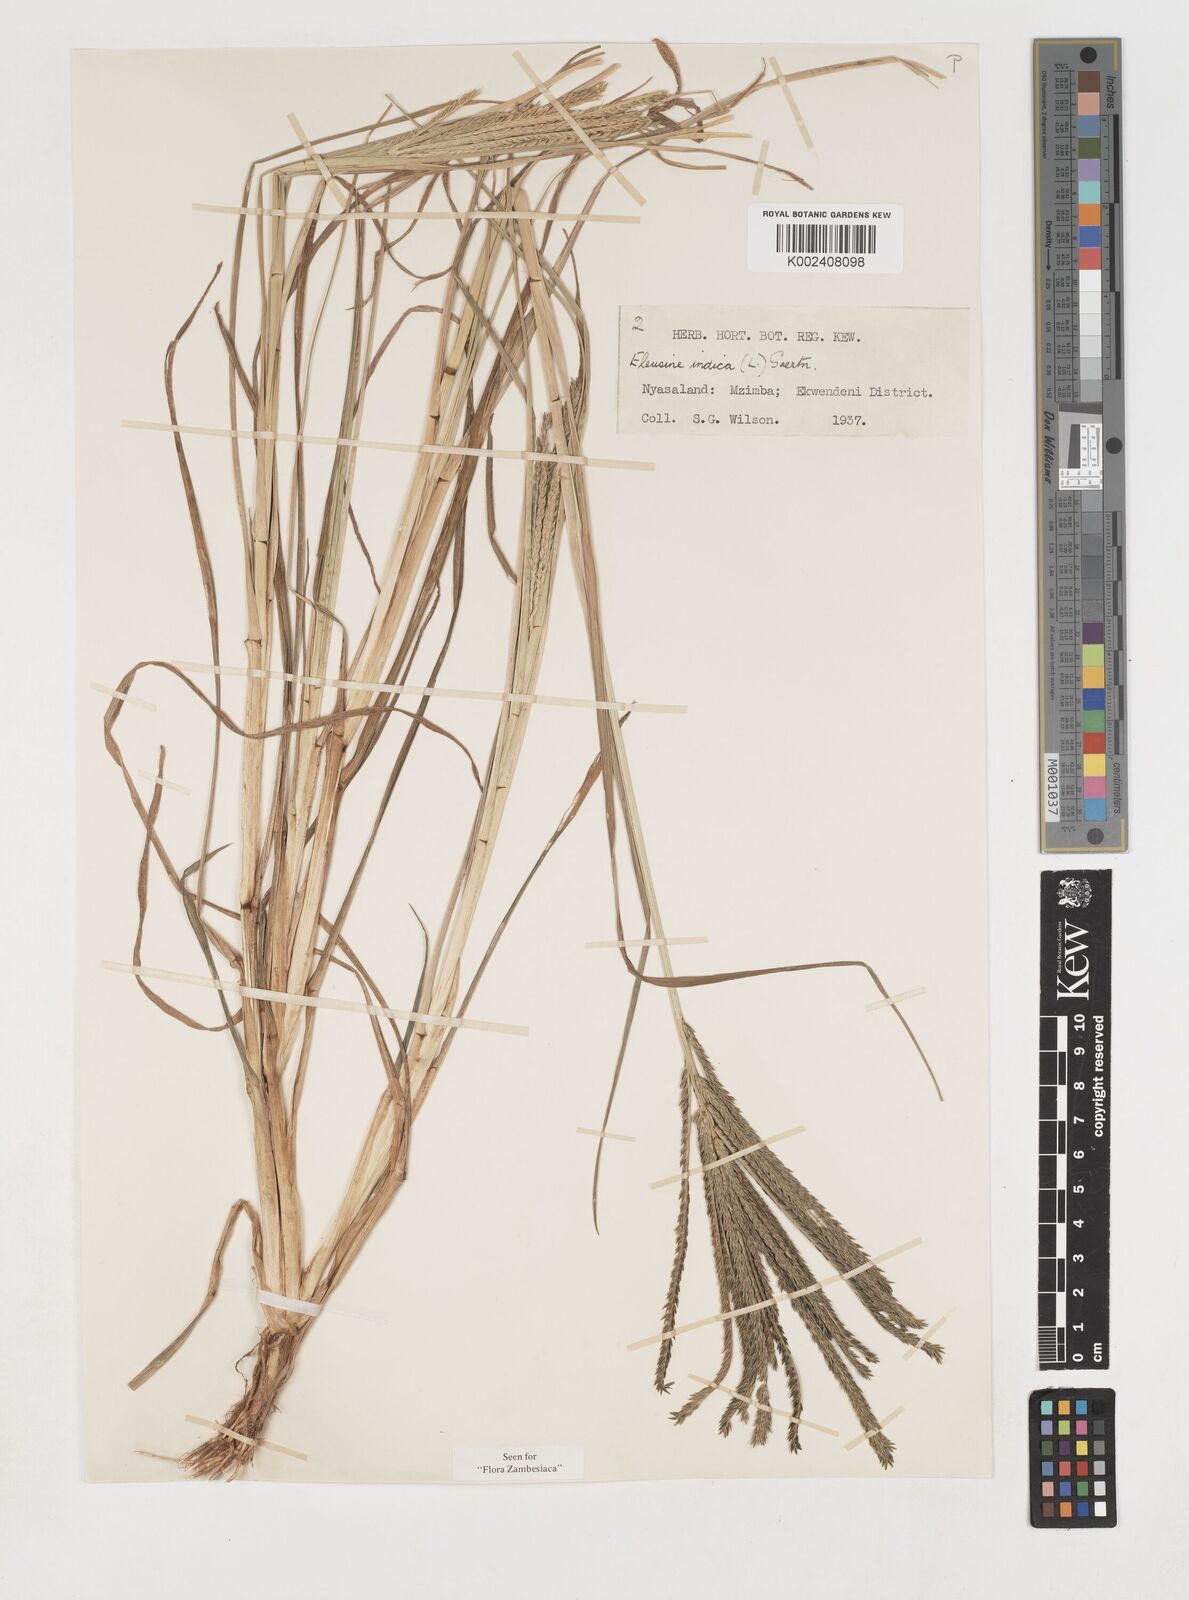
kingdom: Plantae
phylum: Tracheophyta
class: Liliopsida
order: Poales
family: Poaceae
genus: Eleusine
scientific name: Eleusine africana
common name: Wild african finger millet
